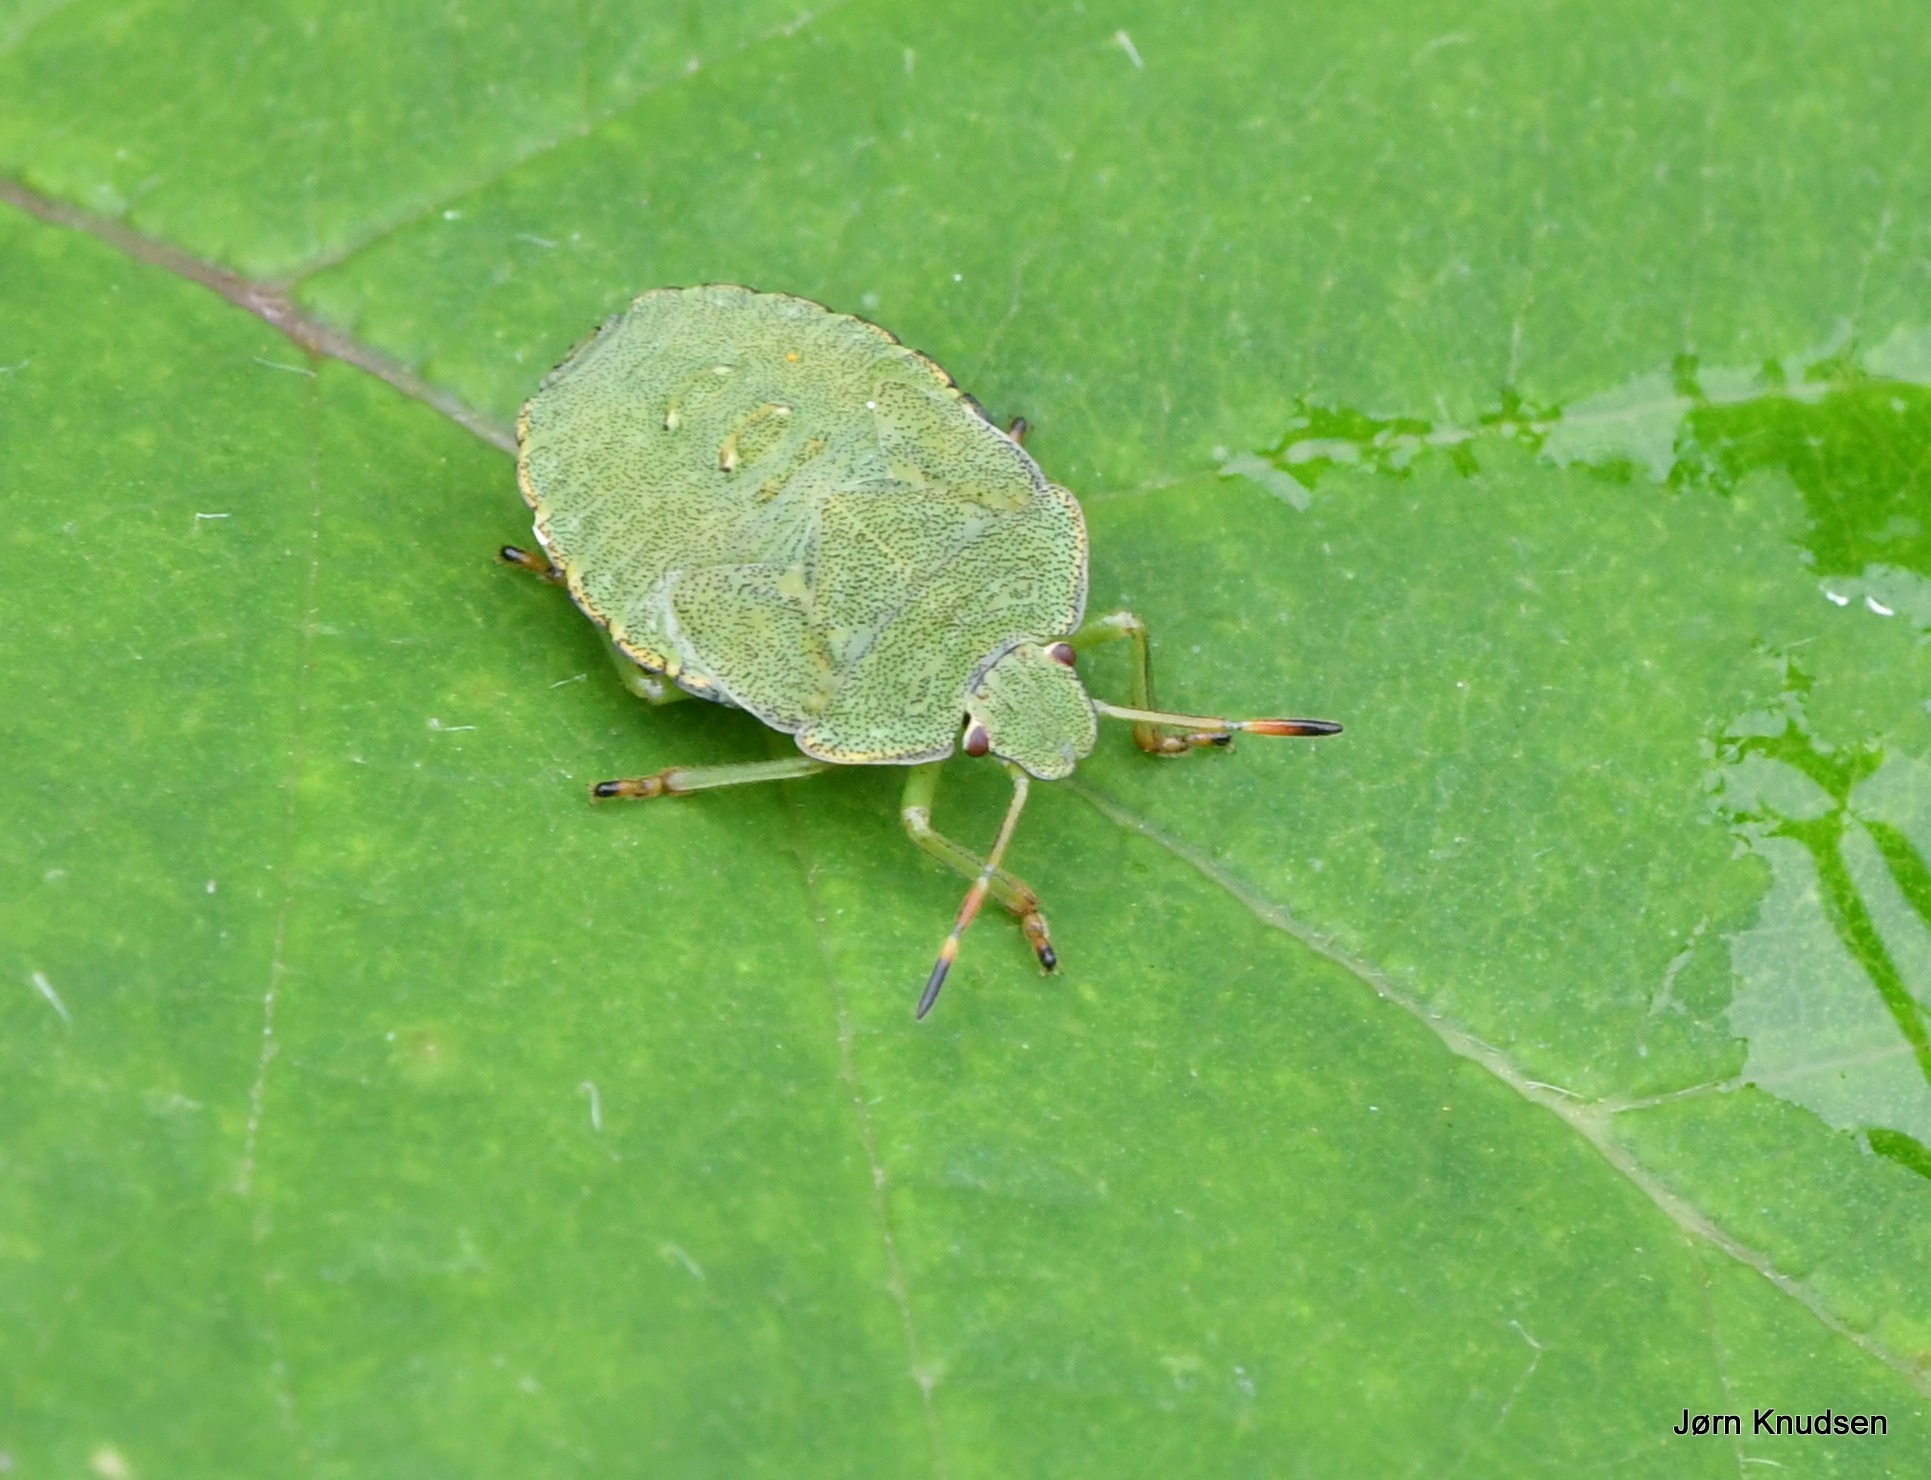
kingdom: Animalia
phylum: Arthropoda
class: Insecta
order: Hemiptera
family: Pentatomidae
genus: Palomena
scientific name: Palomena prasina
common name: Grøn bredtæge
